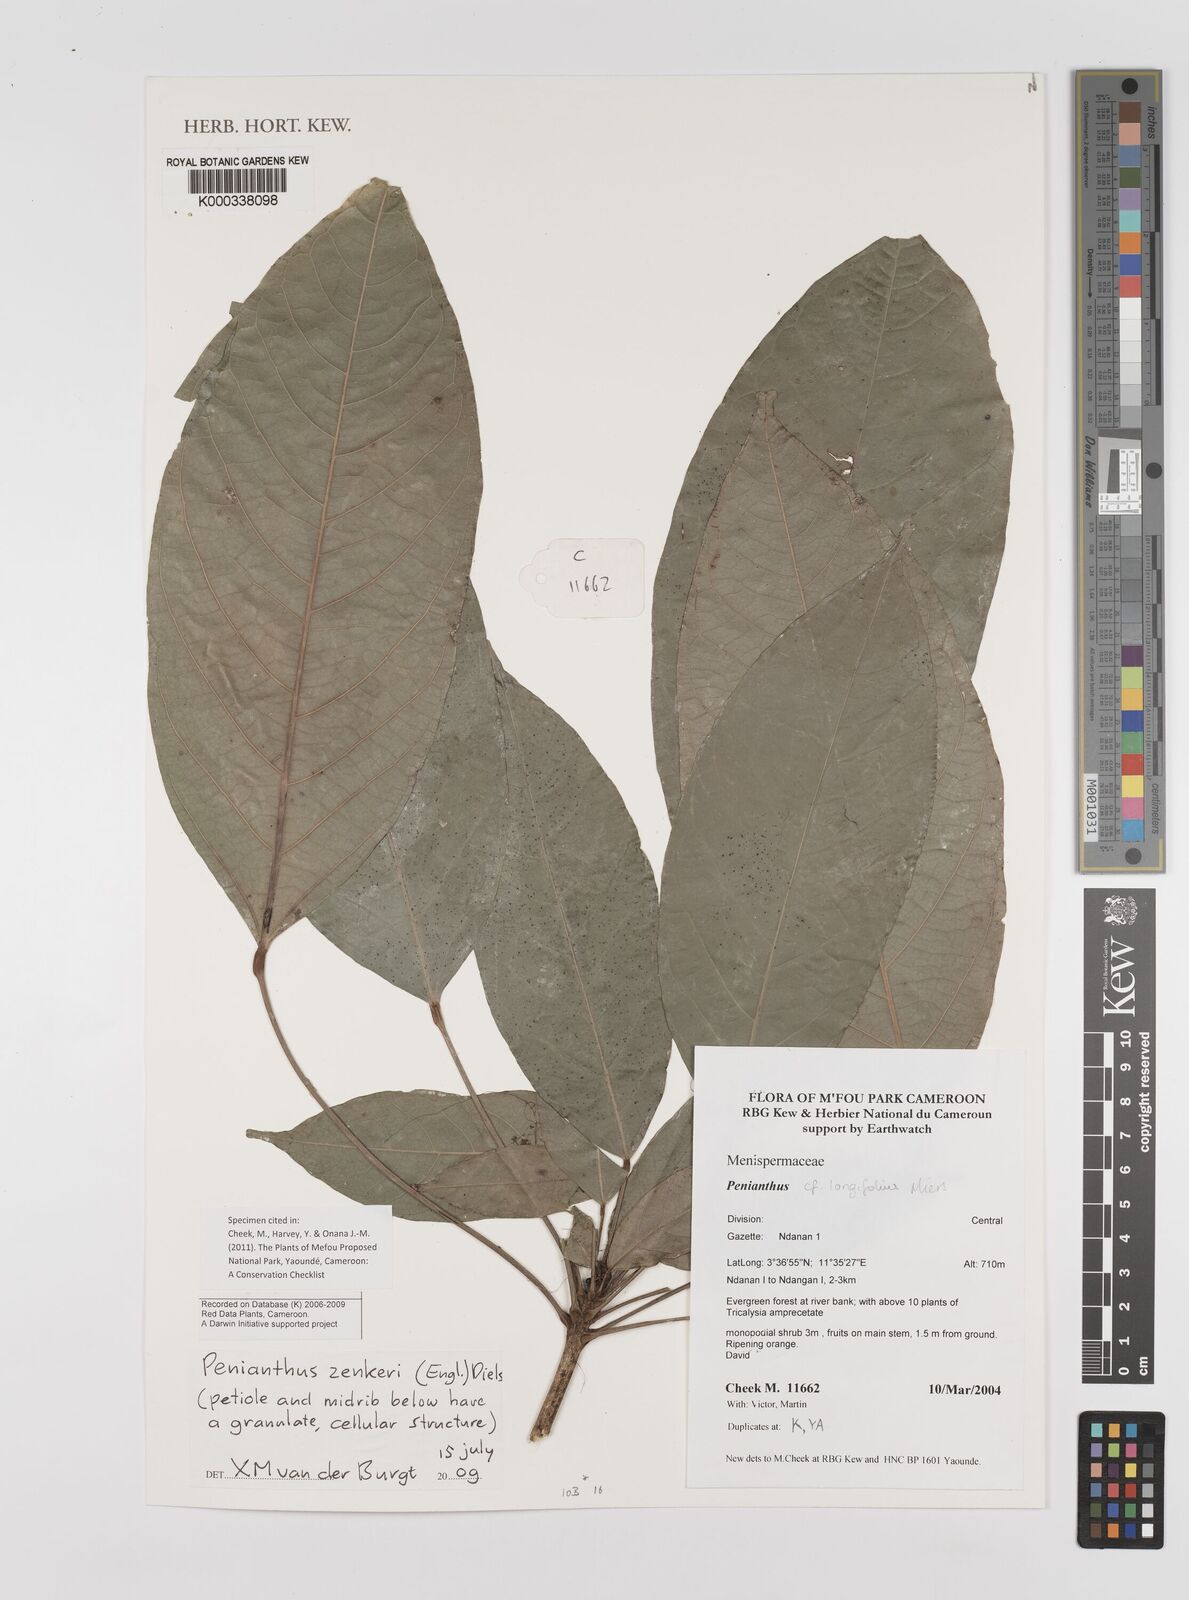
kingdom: Plantae
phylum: Tracheophyta
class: Magnoliopsida
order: Ranunculales
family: Menispermaceae
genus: Penianthus
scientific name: Penianthus zenkeri
